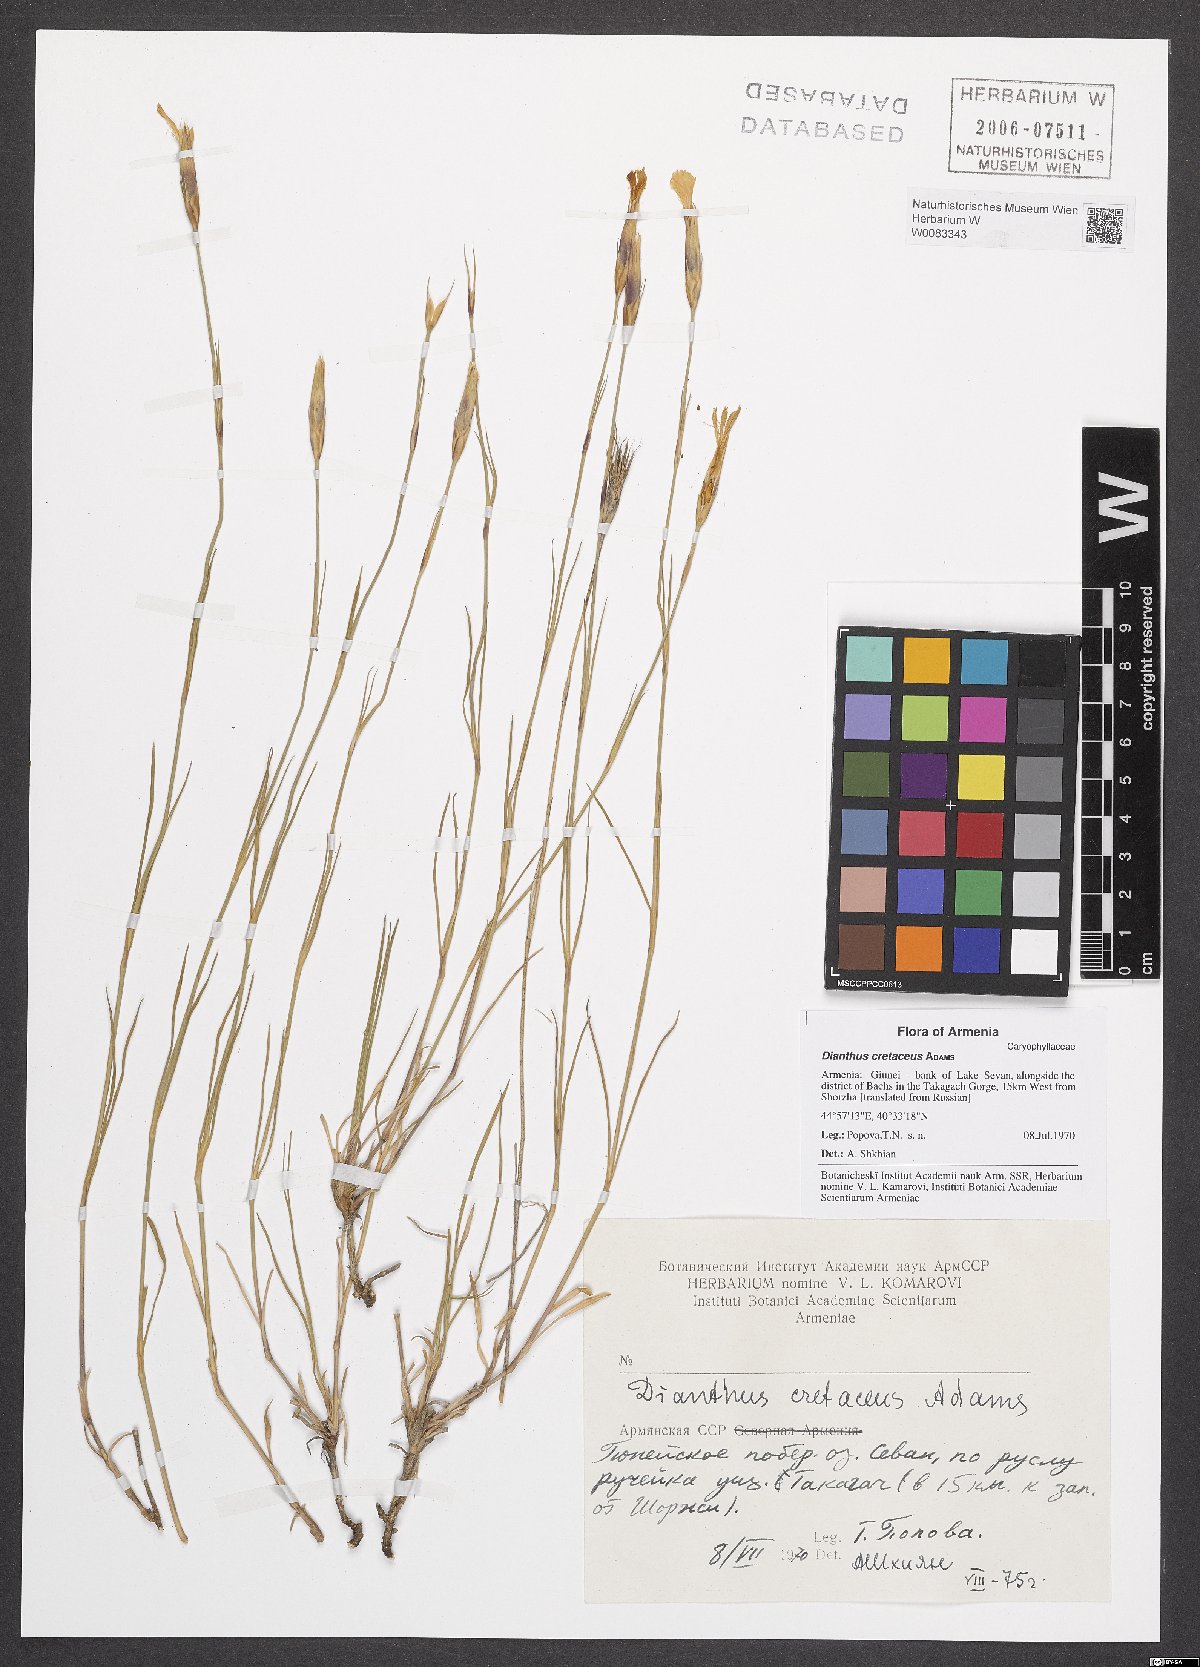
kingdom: Plantae
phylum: Tracheophyta
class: Magnoliopsida
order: Caryophyllales
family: Caryophyllaceae
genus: Dianthus
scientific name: Dianthus cretaceus
